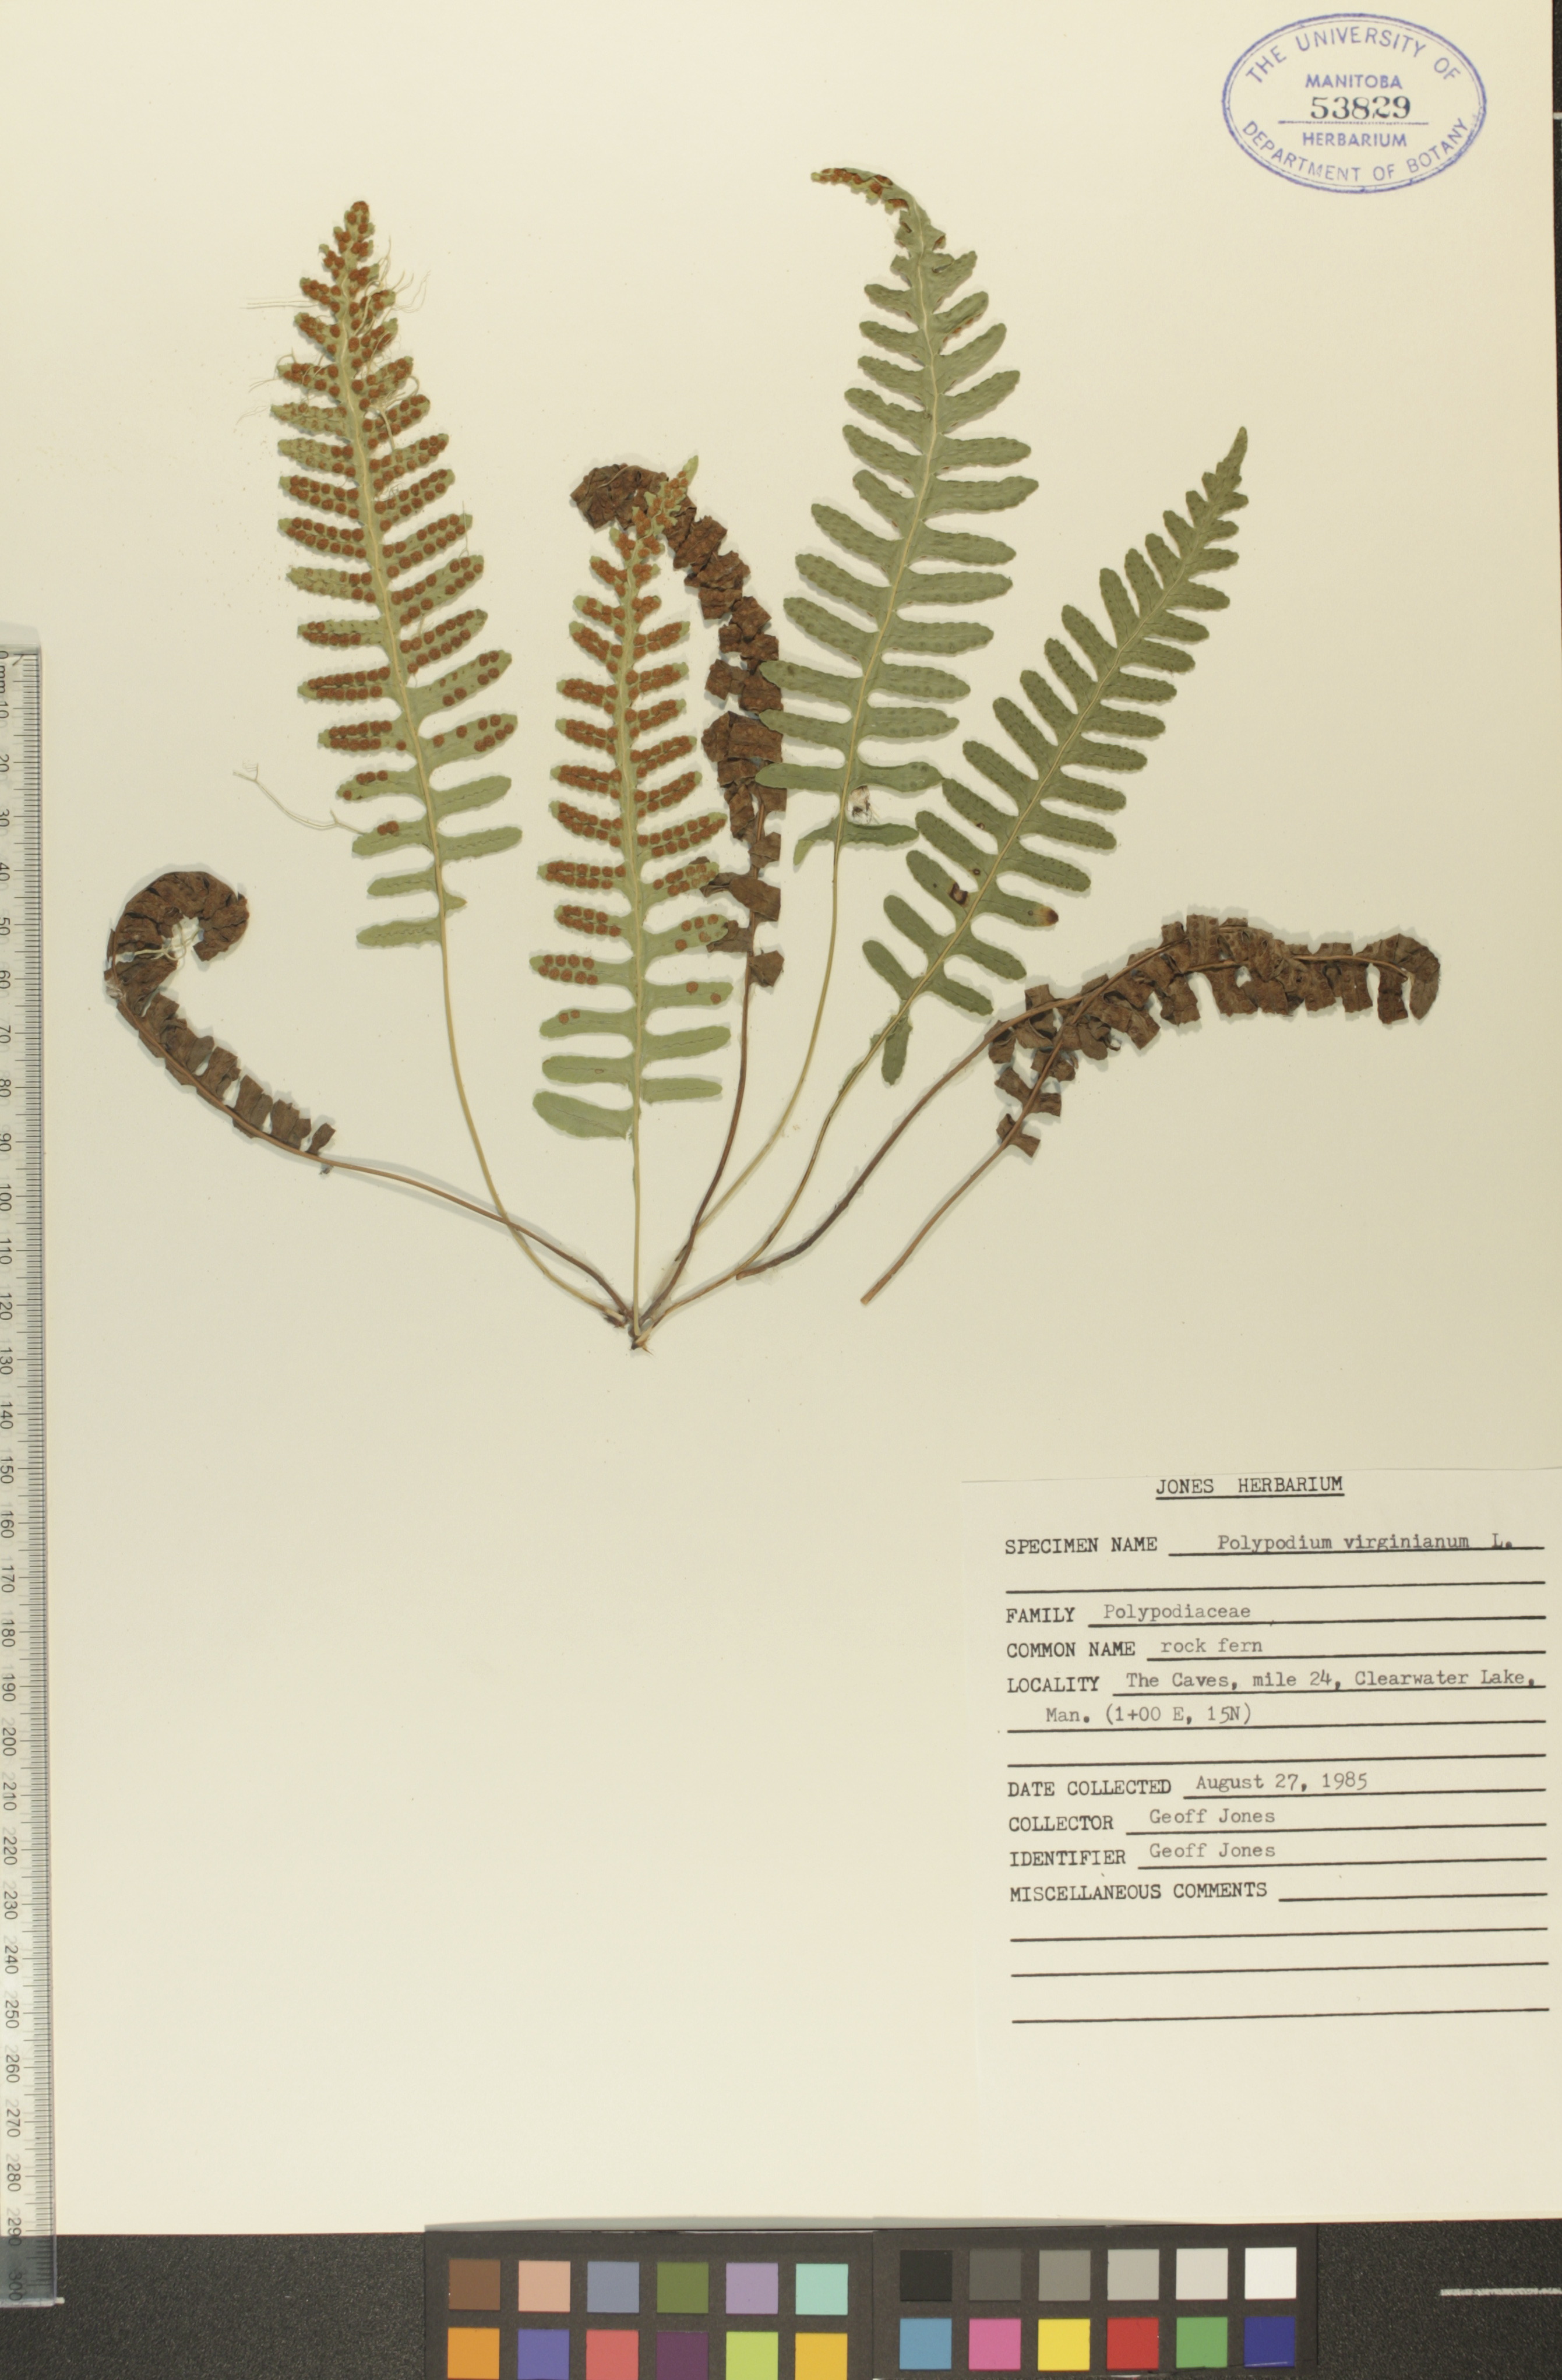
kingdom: Plantae
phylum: Tracheophyta
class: Polypodiopsida
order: Polypodiales
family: Polypodiaceae
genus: Polypodium
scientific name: Polypodium virginianum
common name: American wall fern
